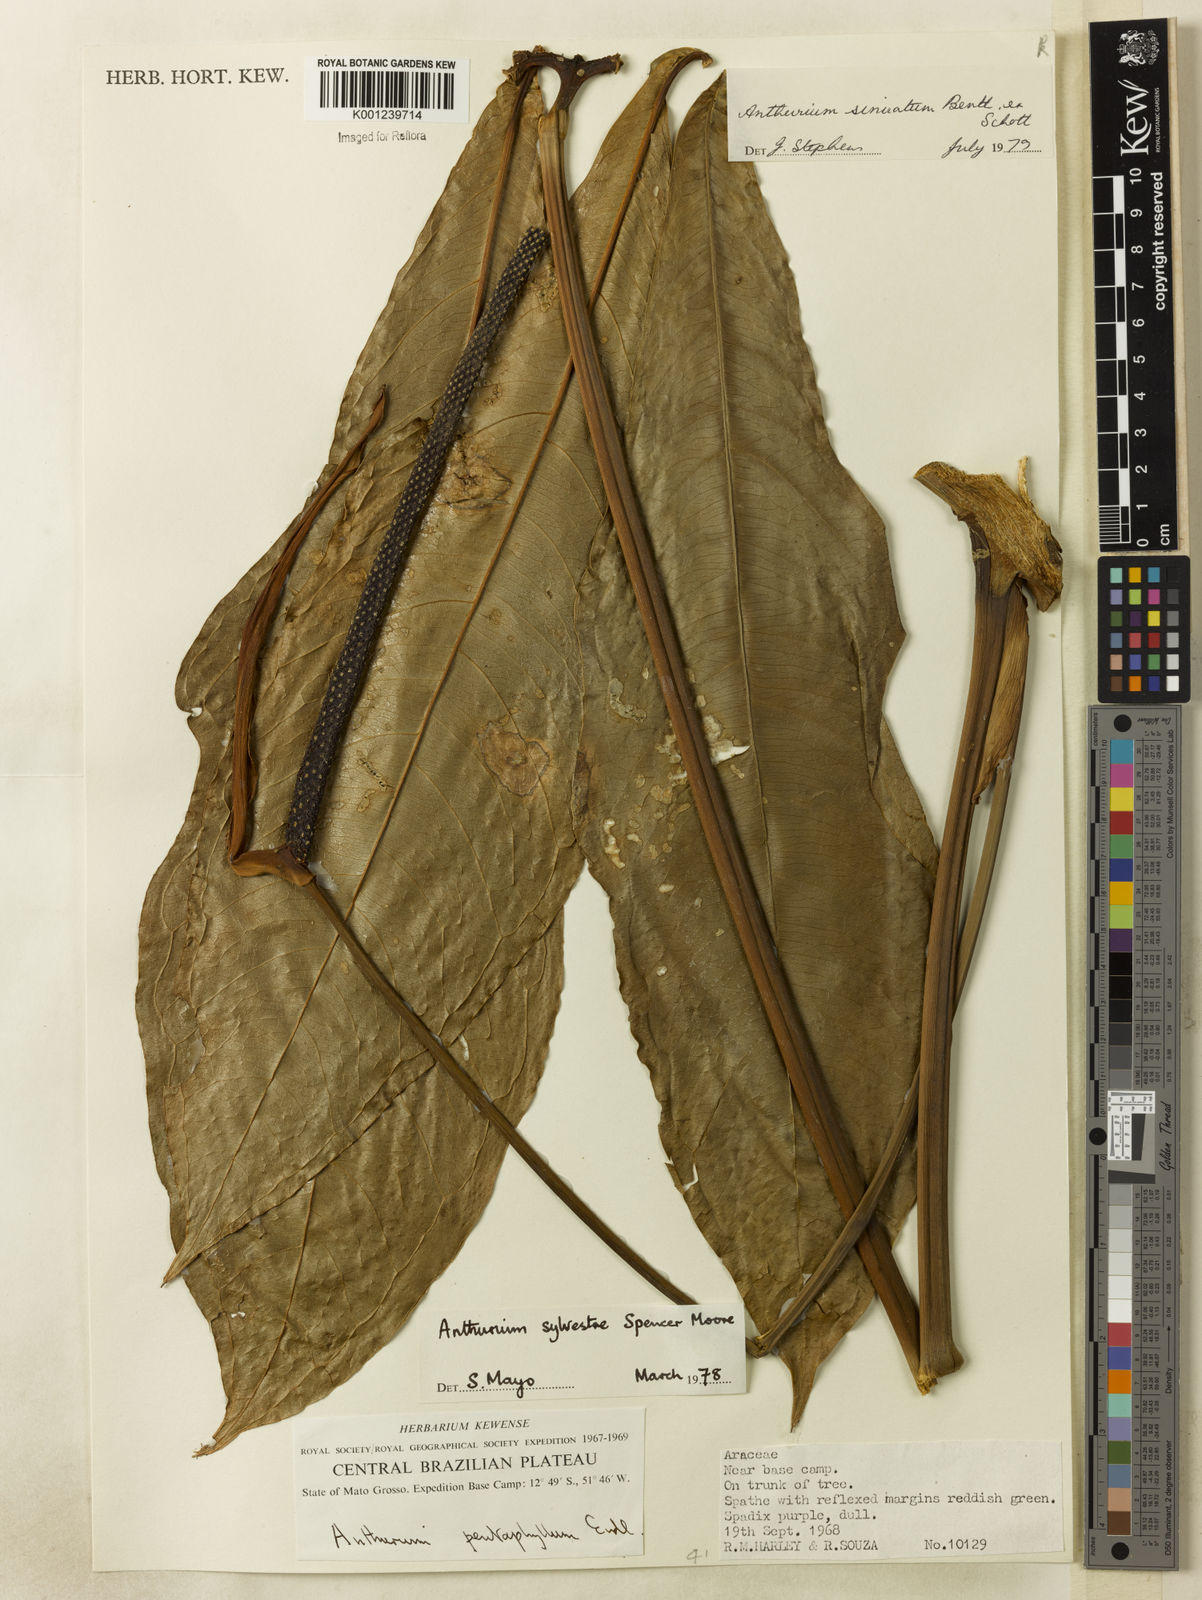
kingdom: Plantae
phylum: Tracheophyta
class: Liliopsida
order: Alismatales
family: Araceae
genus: Anthurium
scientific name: Anthurium sinuatum
